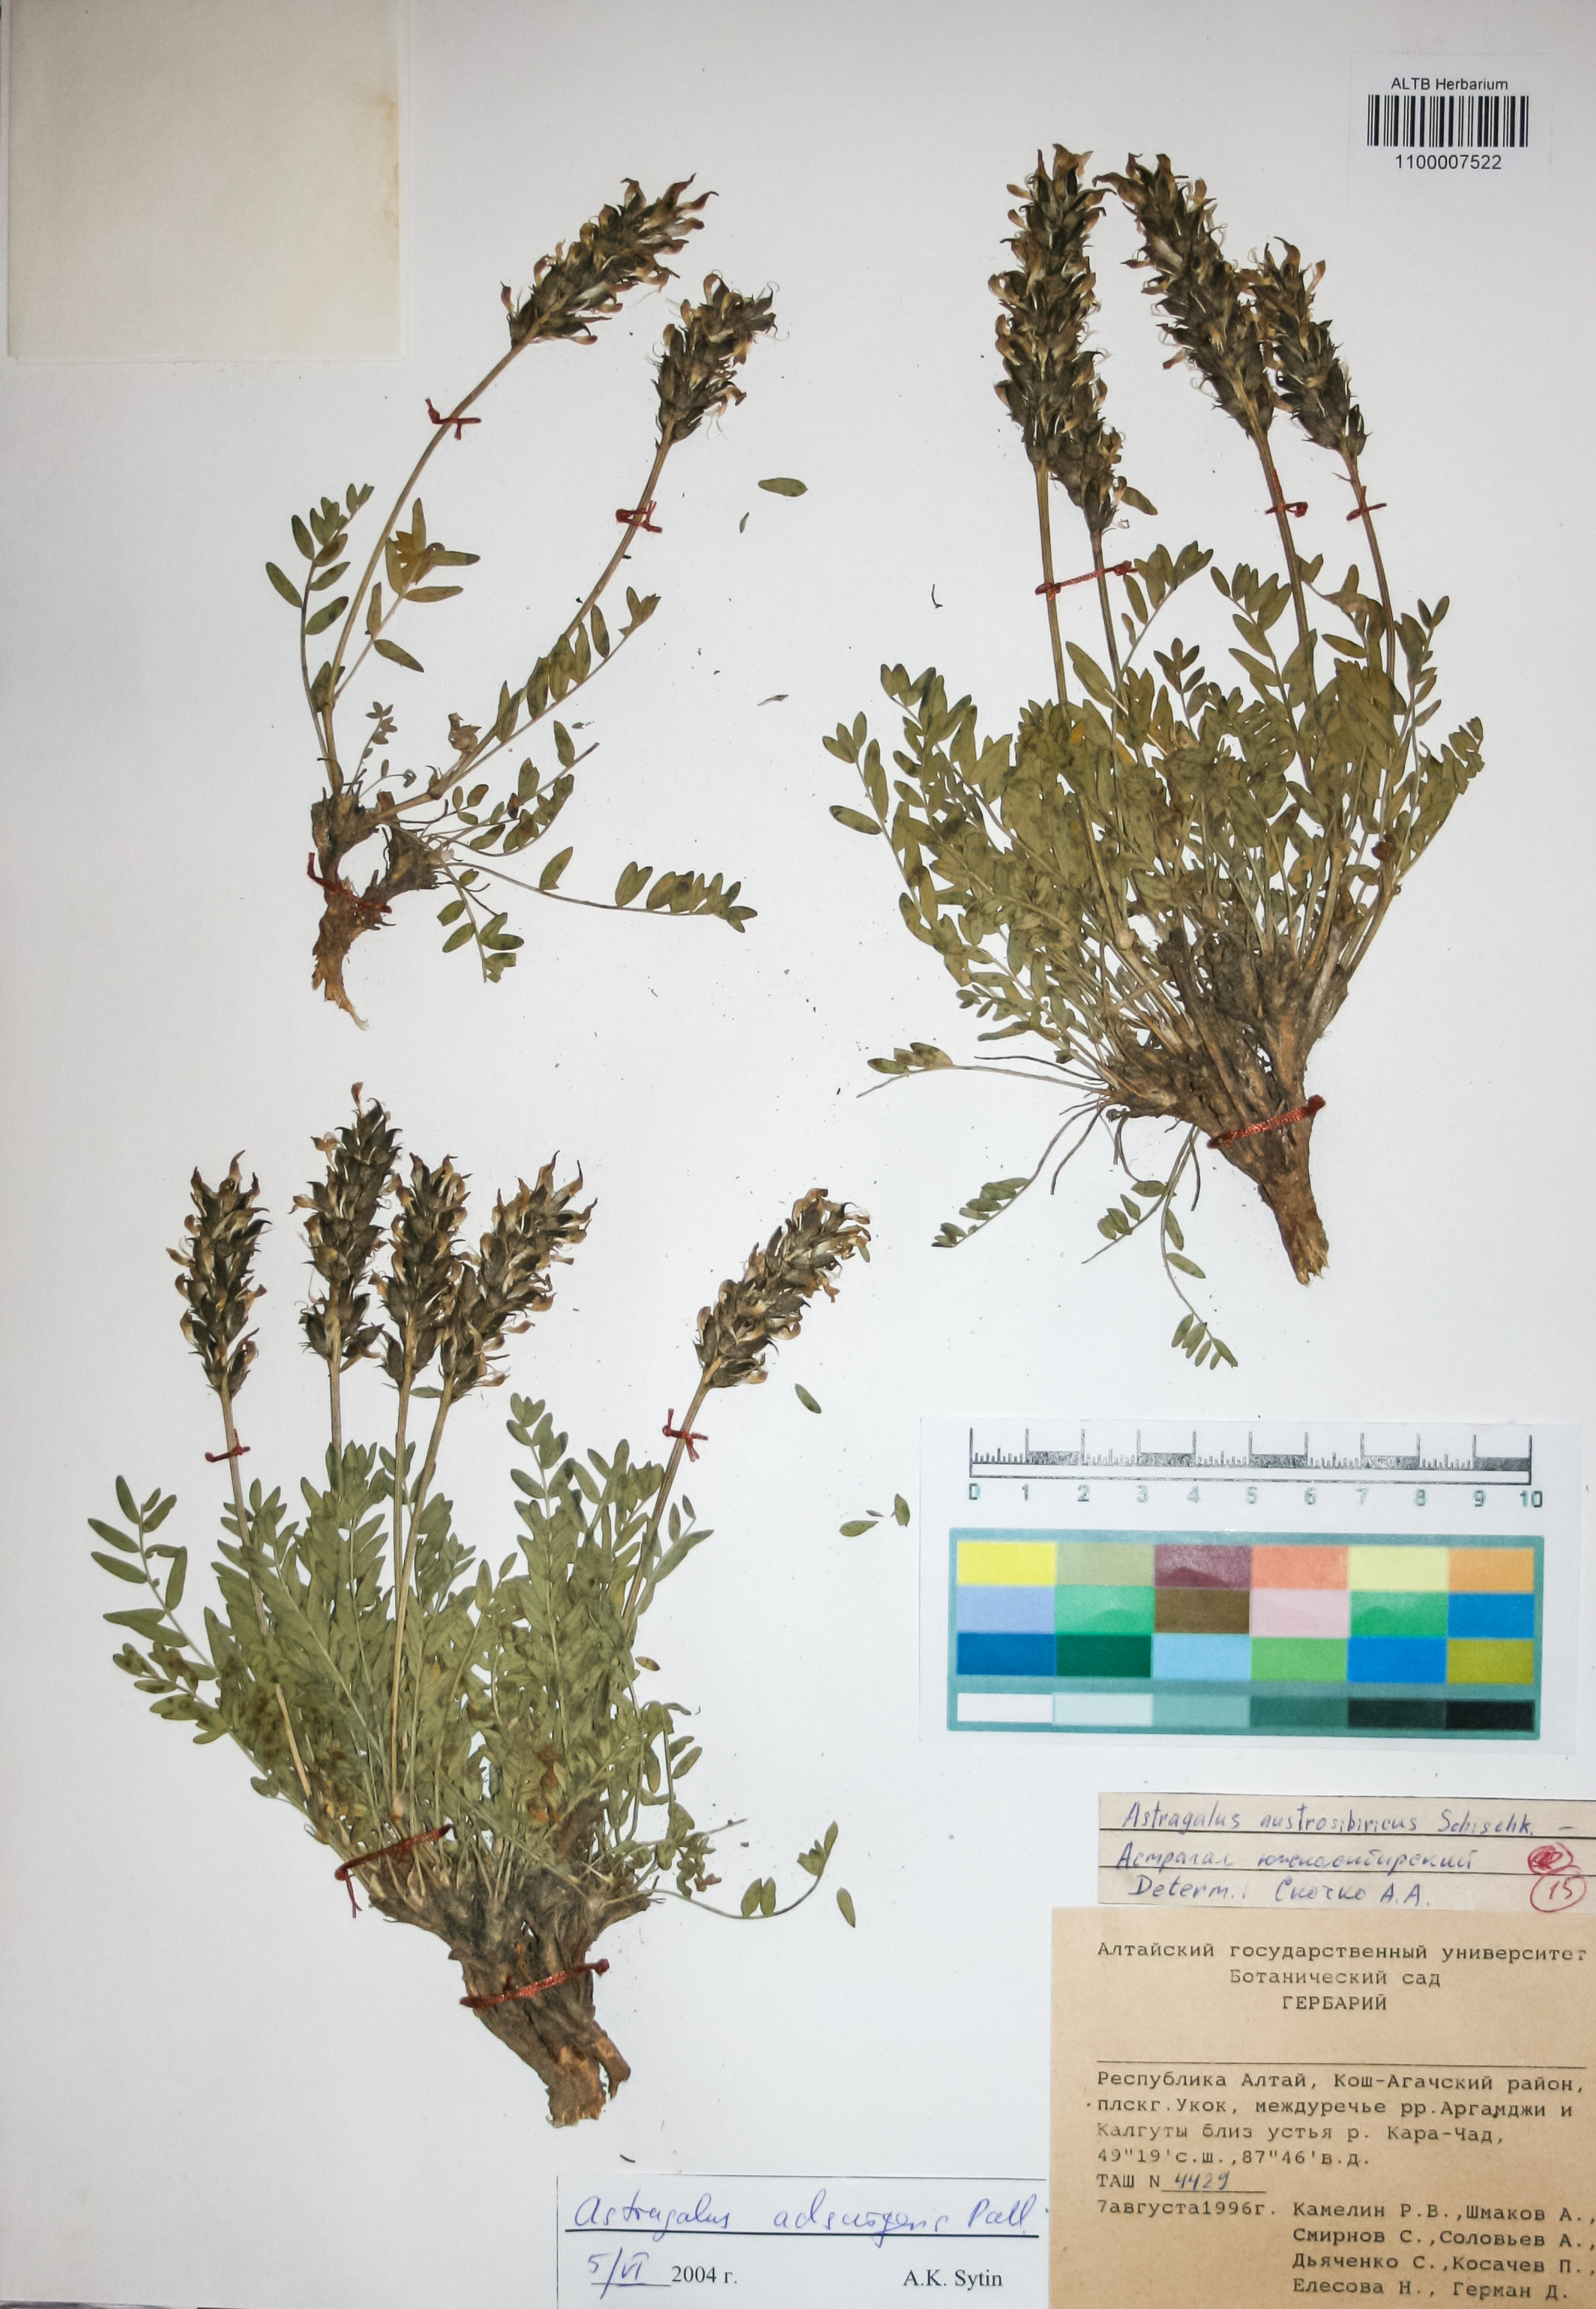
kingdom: Plantae
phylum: Tracheophyta
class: Magnoliopsida
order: Fabales
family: Fabaceae
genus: Astragalus
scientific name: Astragalus laxmannii
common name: Laxmann's milk-vetch
